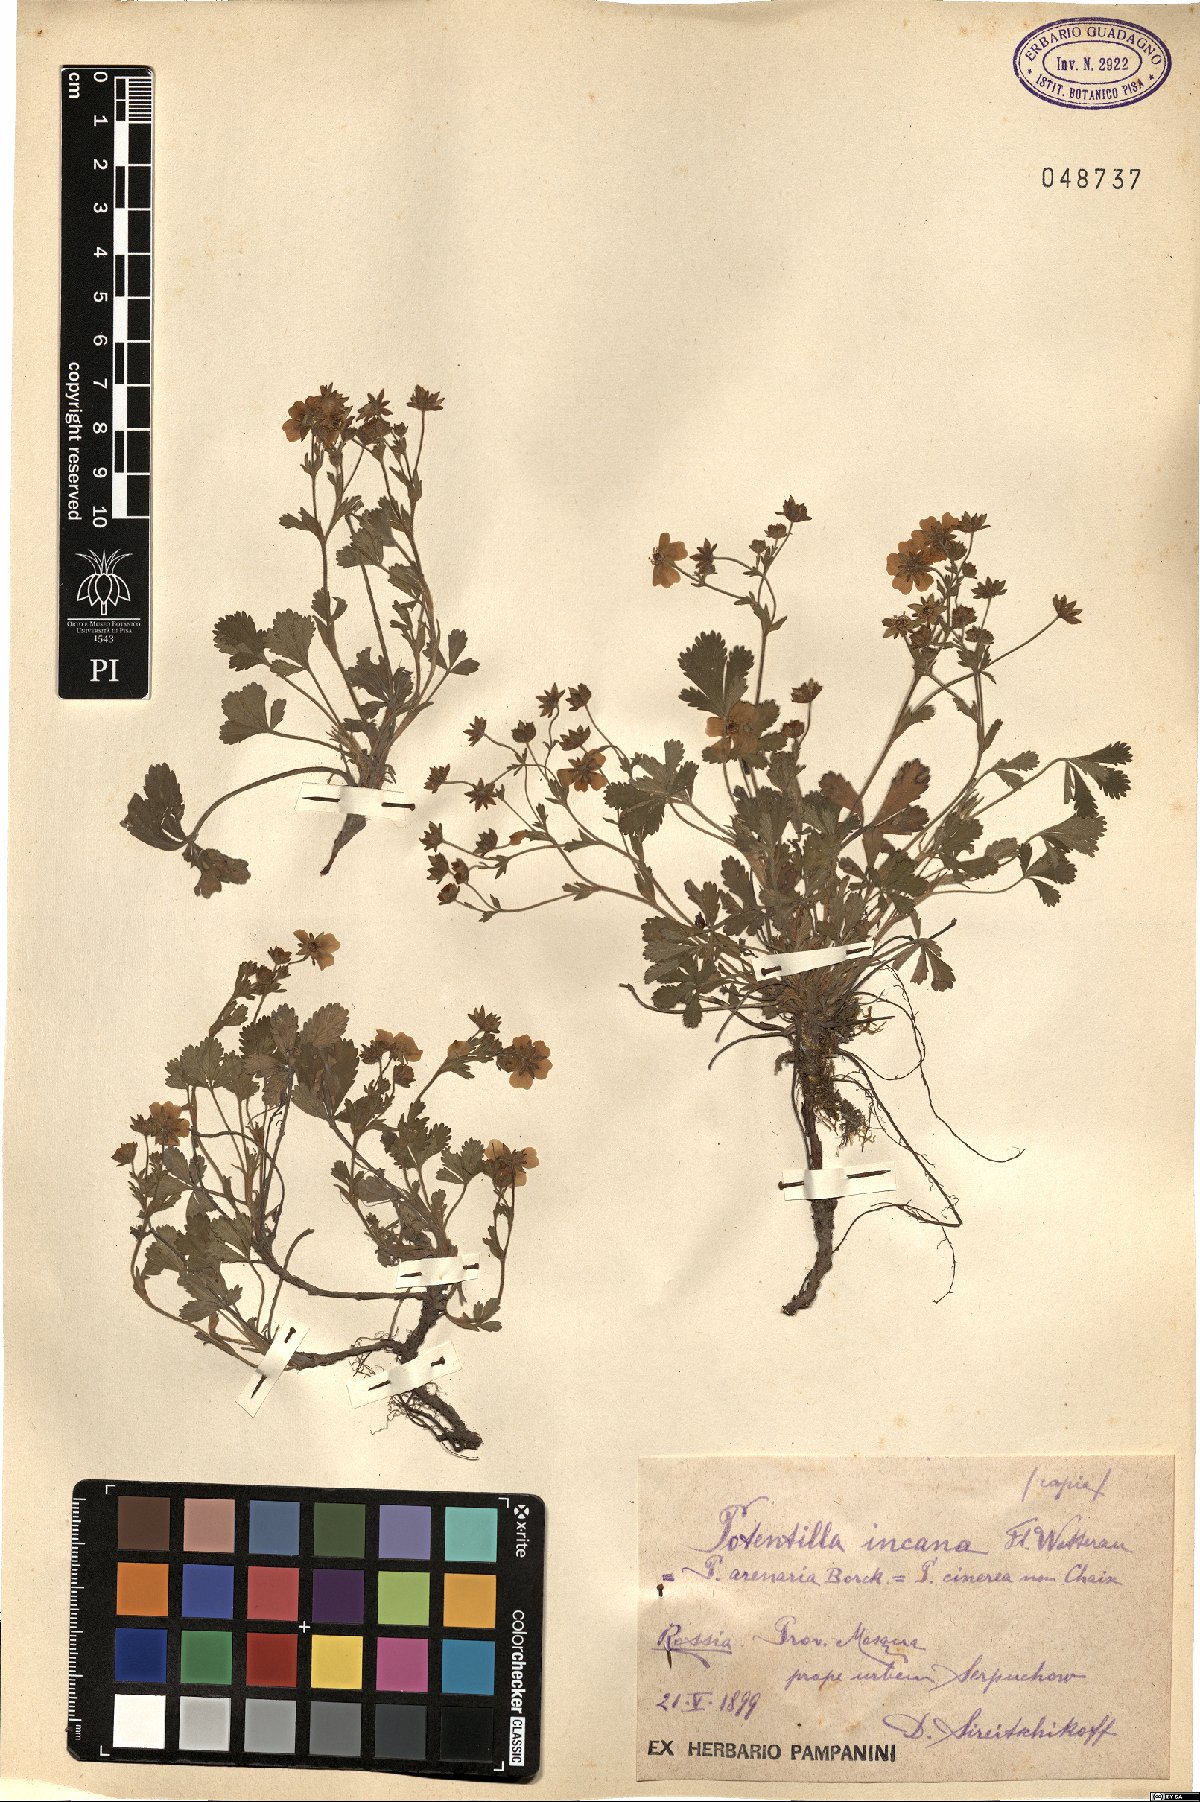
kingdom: Plantae
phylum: Tracheophyta
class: Magnoliopsida
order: Rosales
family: Rosaceae
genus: Potentilla
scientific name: Potentilla cinerea
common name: Ashy cinquefoil
